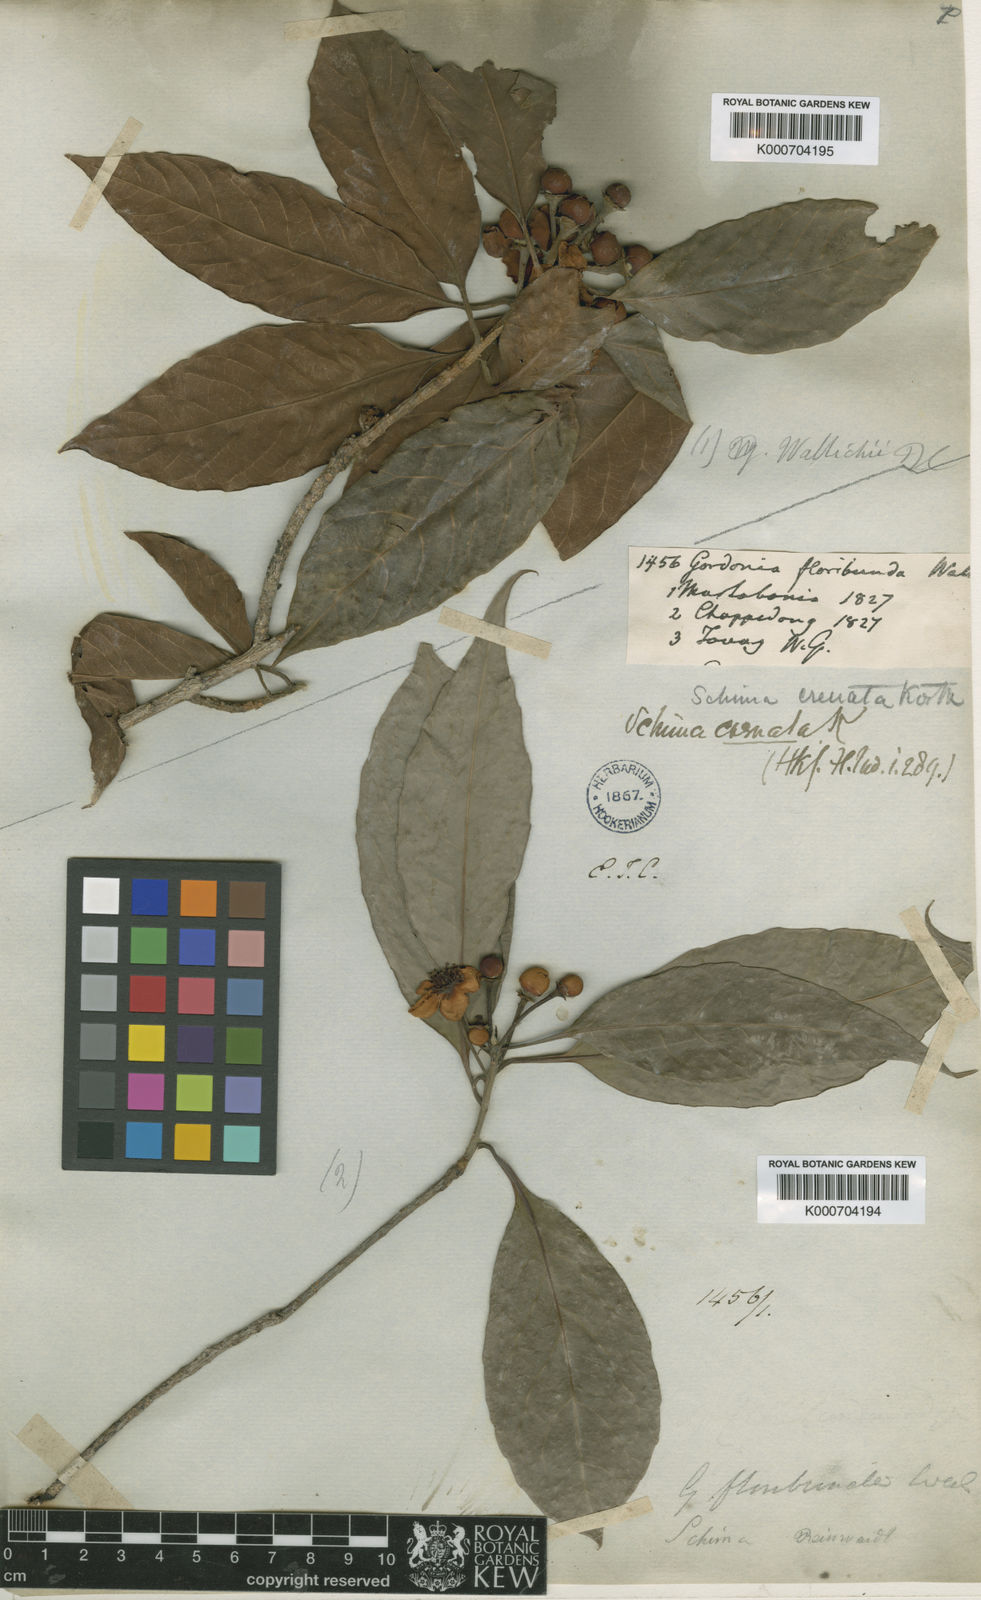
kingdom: Plantae
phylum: Tracheophyta
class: Magnoliopsida
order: Ericales
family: Theaceae
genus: Schima
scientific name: Schima
